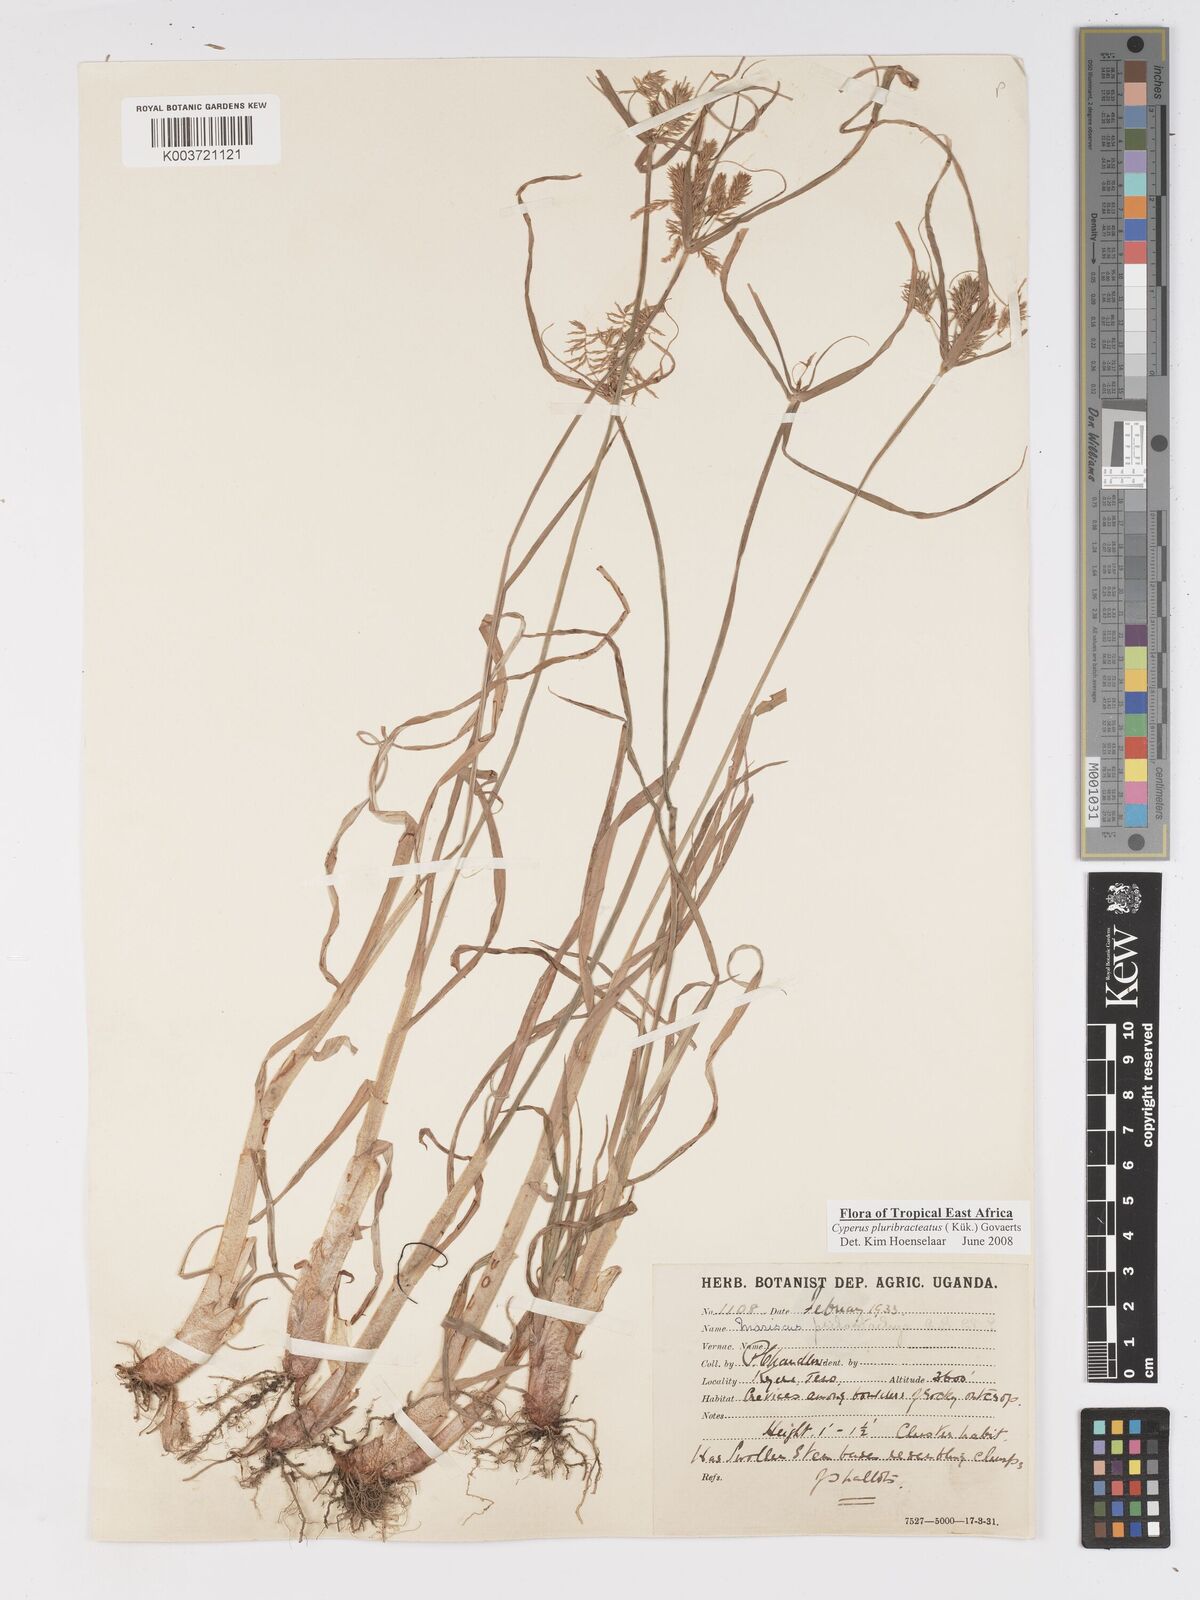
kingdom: Plantae
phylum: Tracheophyta
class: Liliopsida
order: Poales
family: Cyperaceae
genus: Cyperus
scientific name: Cyperus trigonellus
